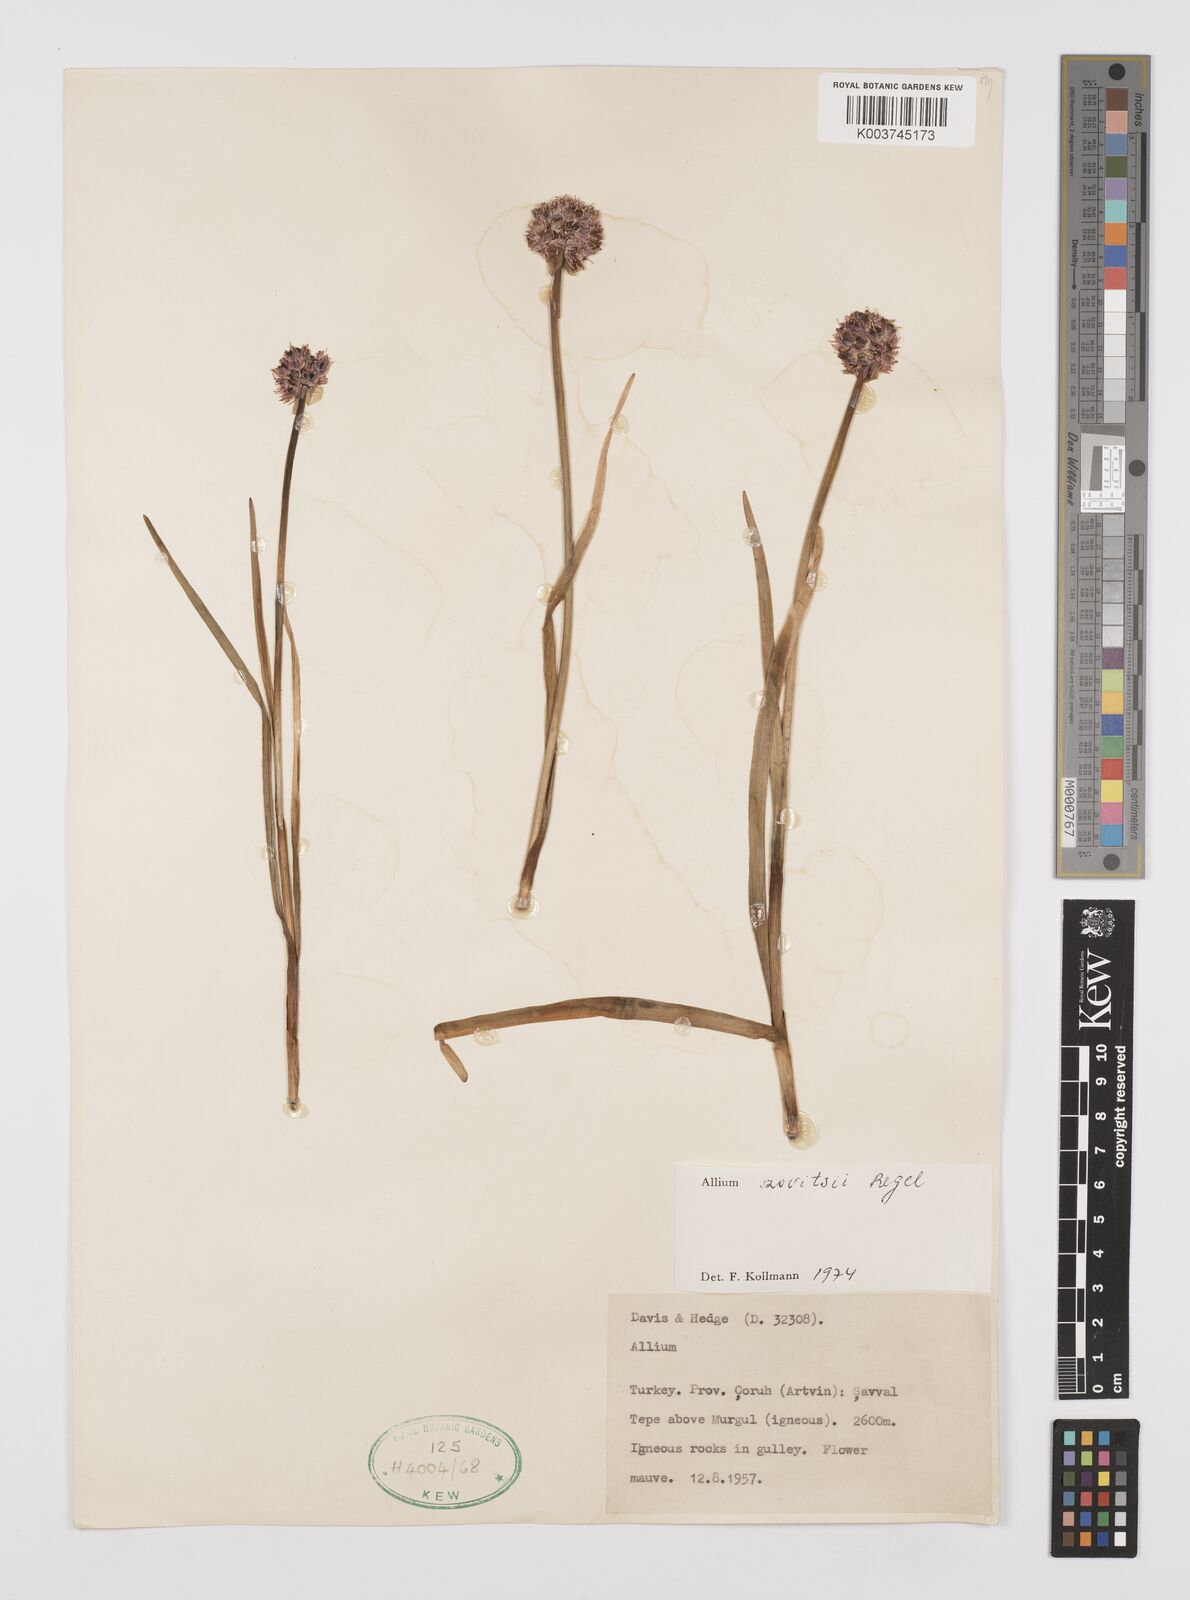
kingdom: Plantae
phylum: Tracheophyta
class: Liliopsida
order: Asparagales
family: Amaryllidaceae
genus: Allium
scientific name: Allium szovitsii
